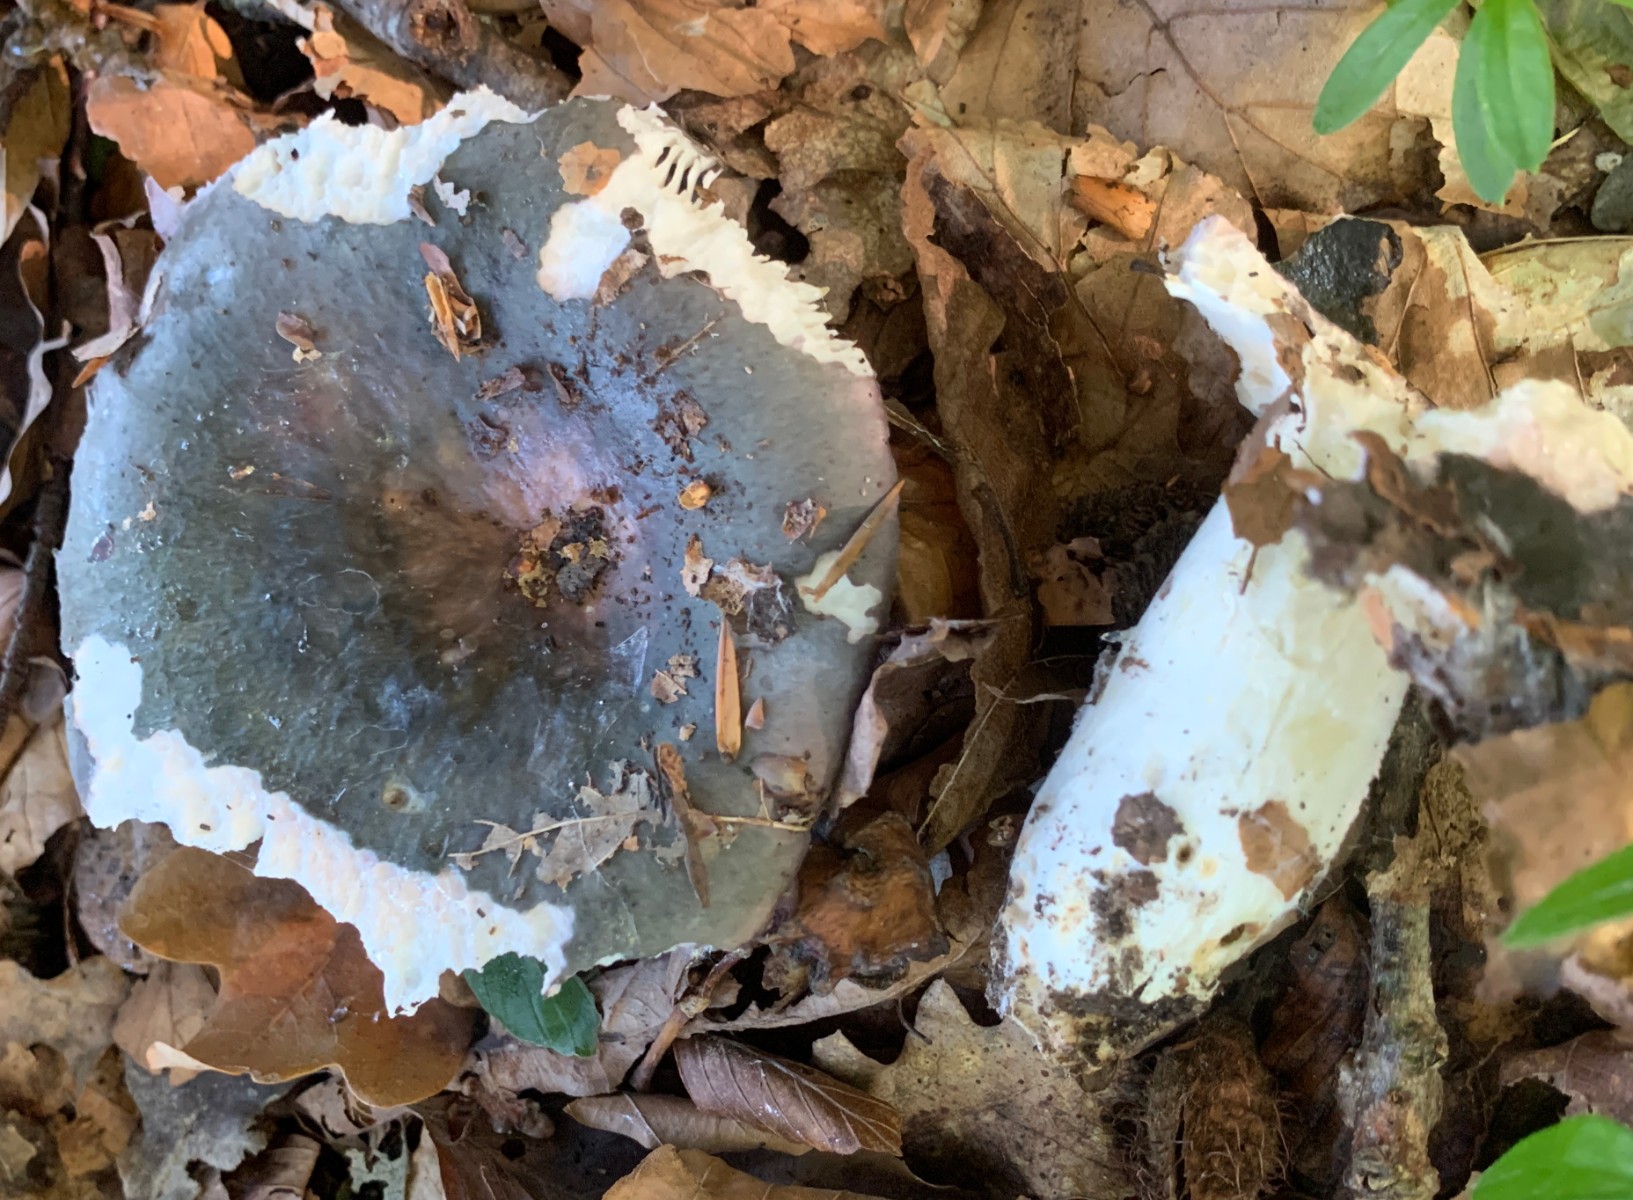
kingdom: Fungi
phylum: Basidiomycota
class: Agaricomycetes
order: Russulales
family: Russulaceae
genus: Russula
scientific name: Russula cyanoxantha
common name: broget skørhat
